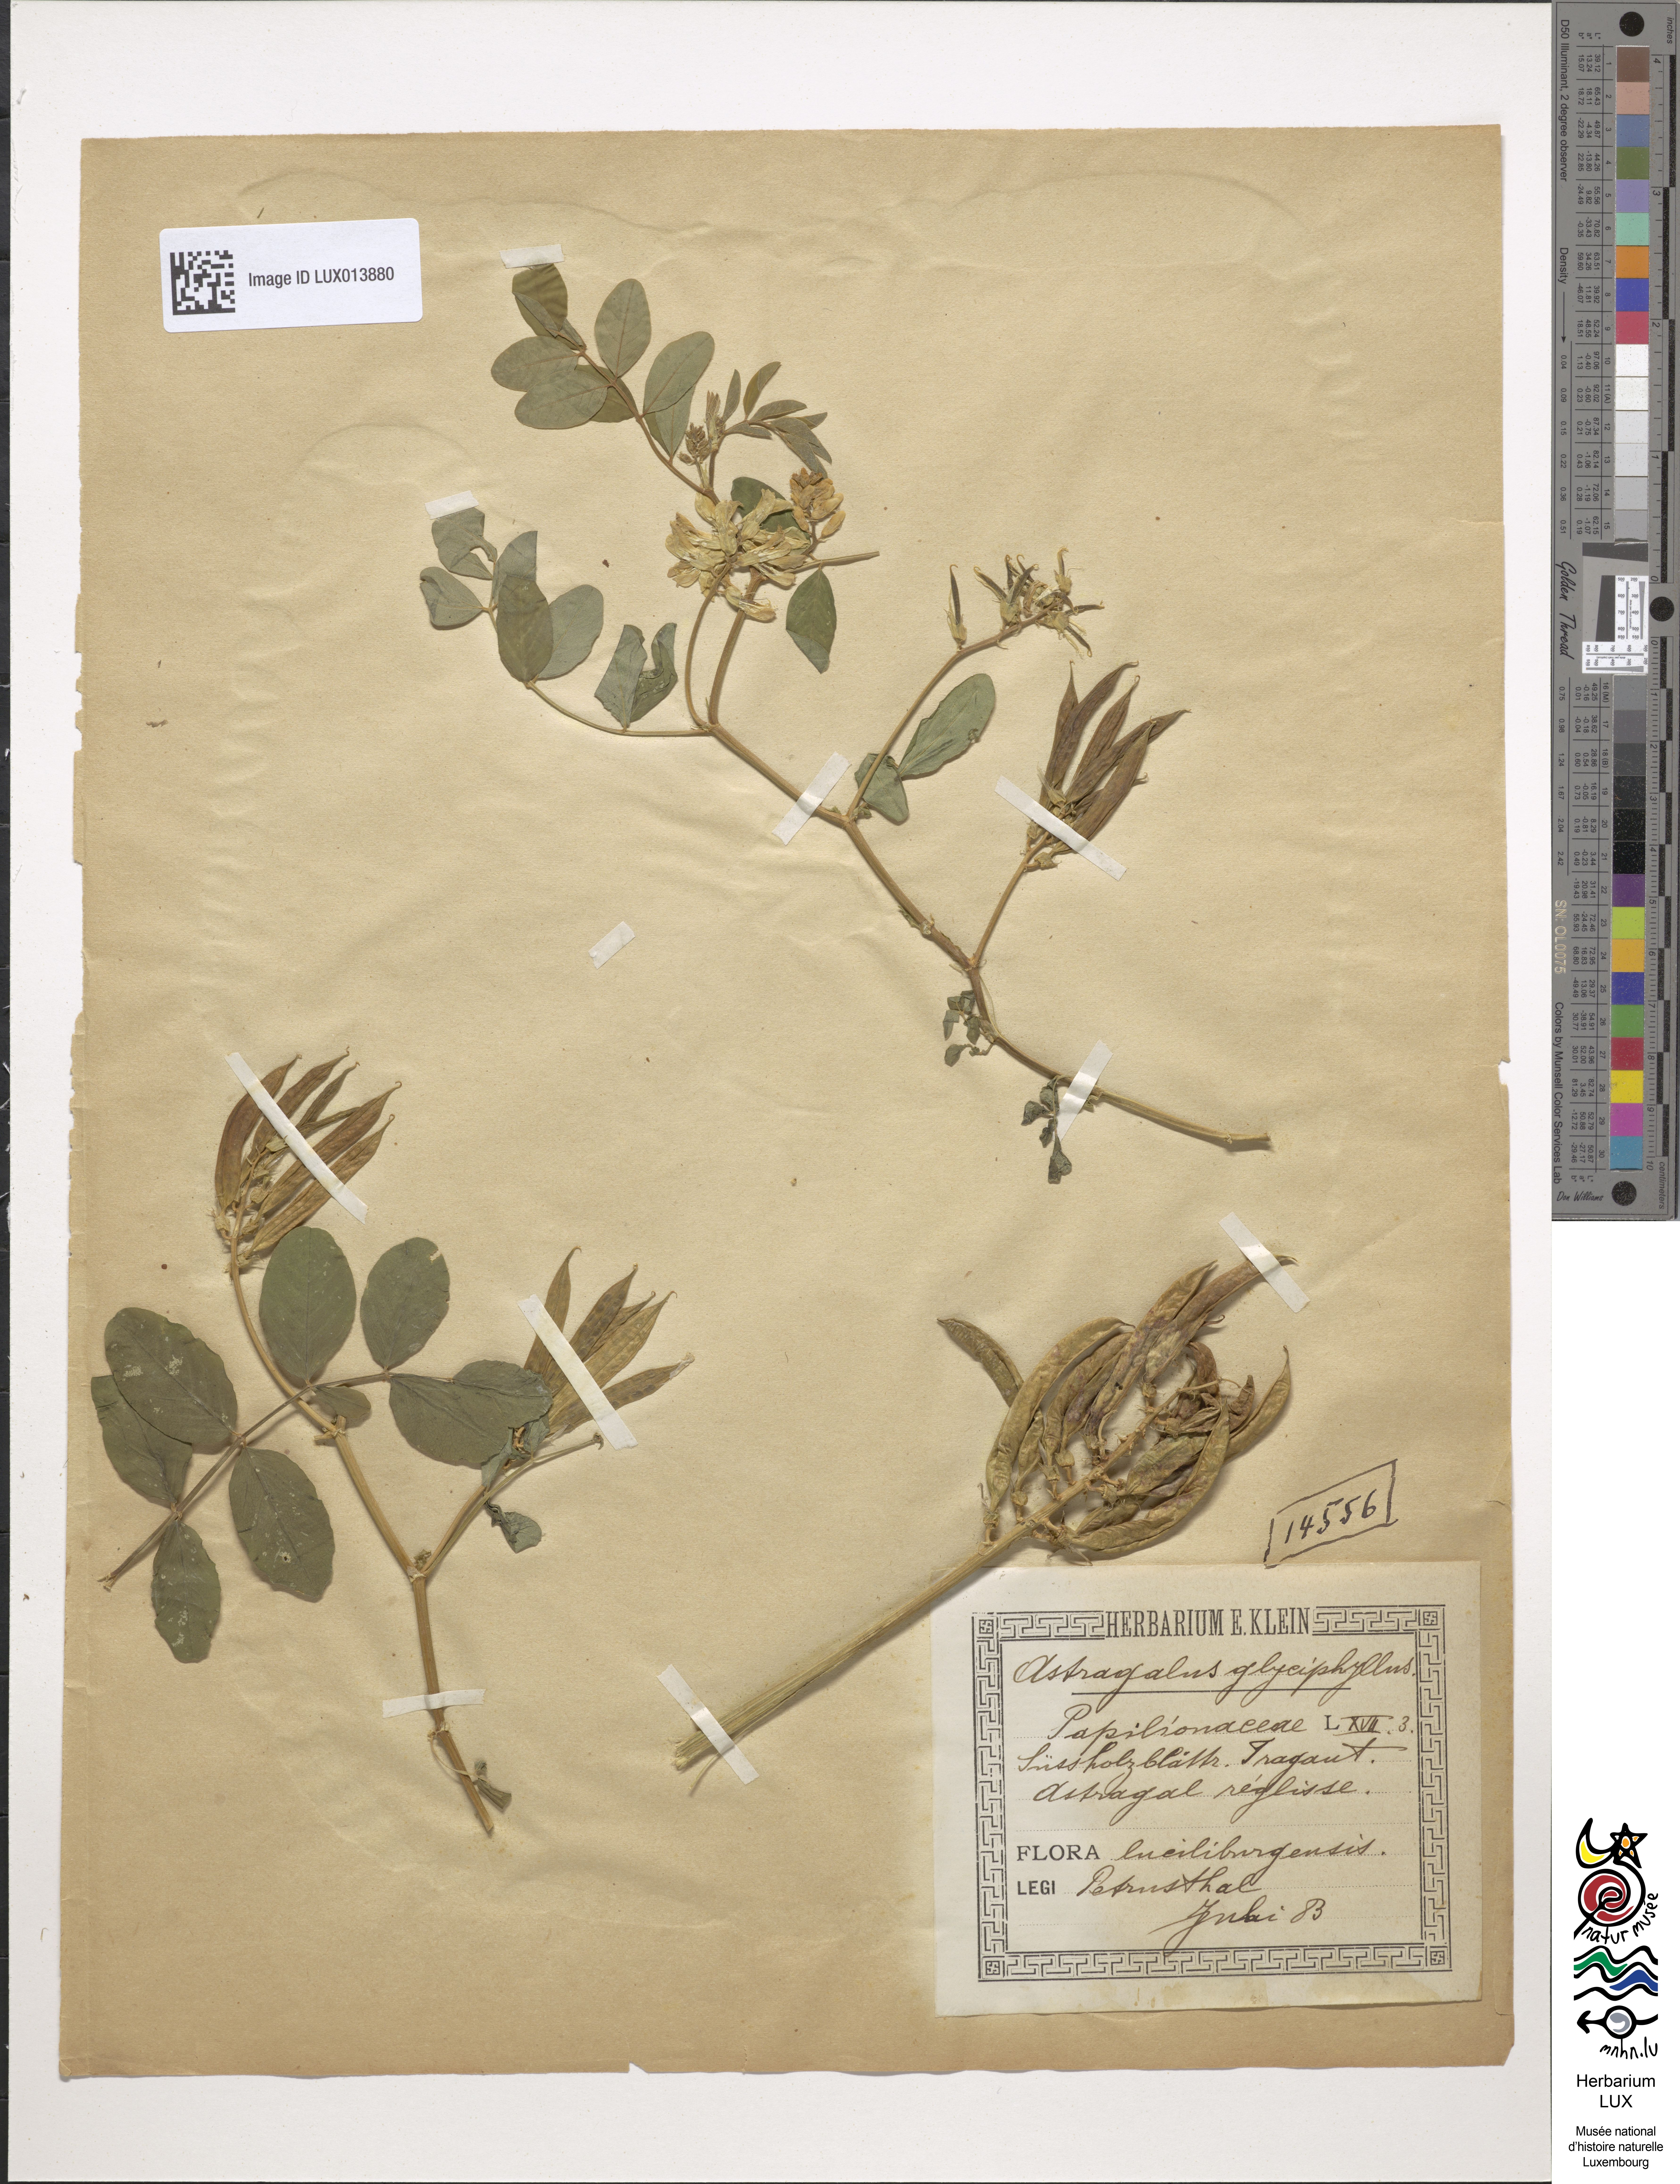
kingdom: Plantae
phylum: Tracheophyta
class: Magnoliopsida
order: Fabales
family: Fabaceae
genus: Astragalus
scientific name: Astragalus glycyphyllos
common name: Wild liquorice
